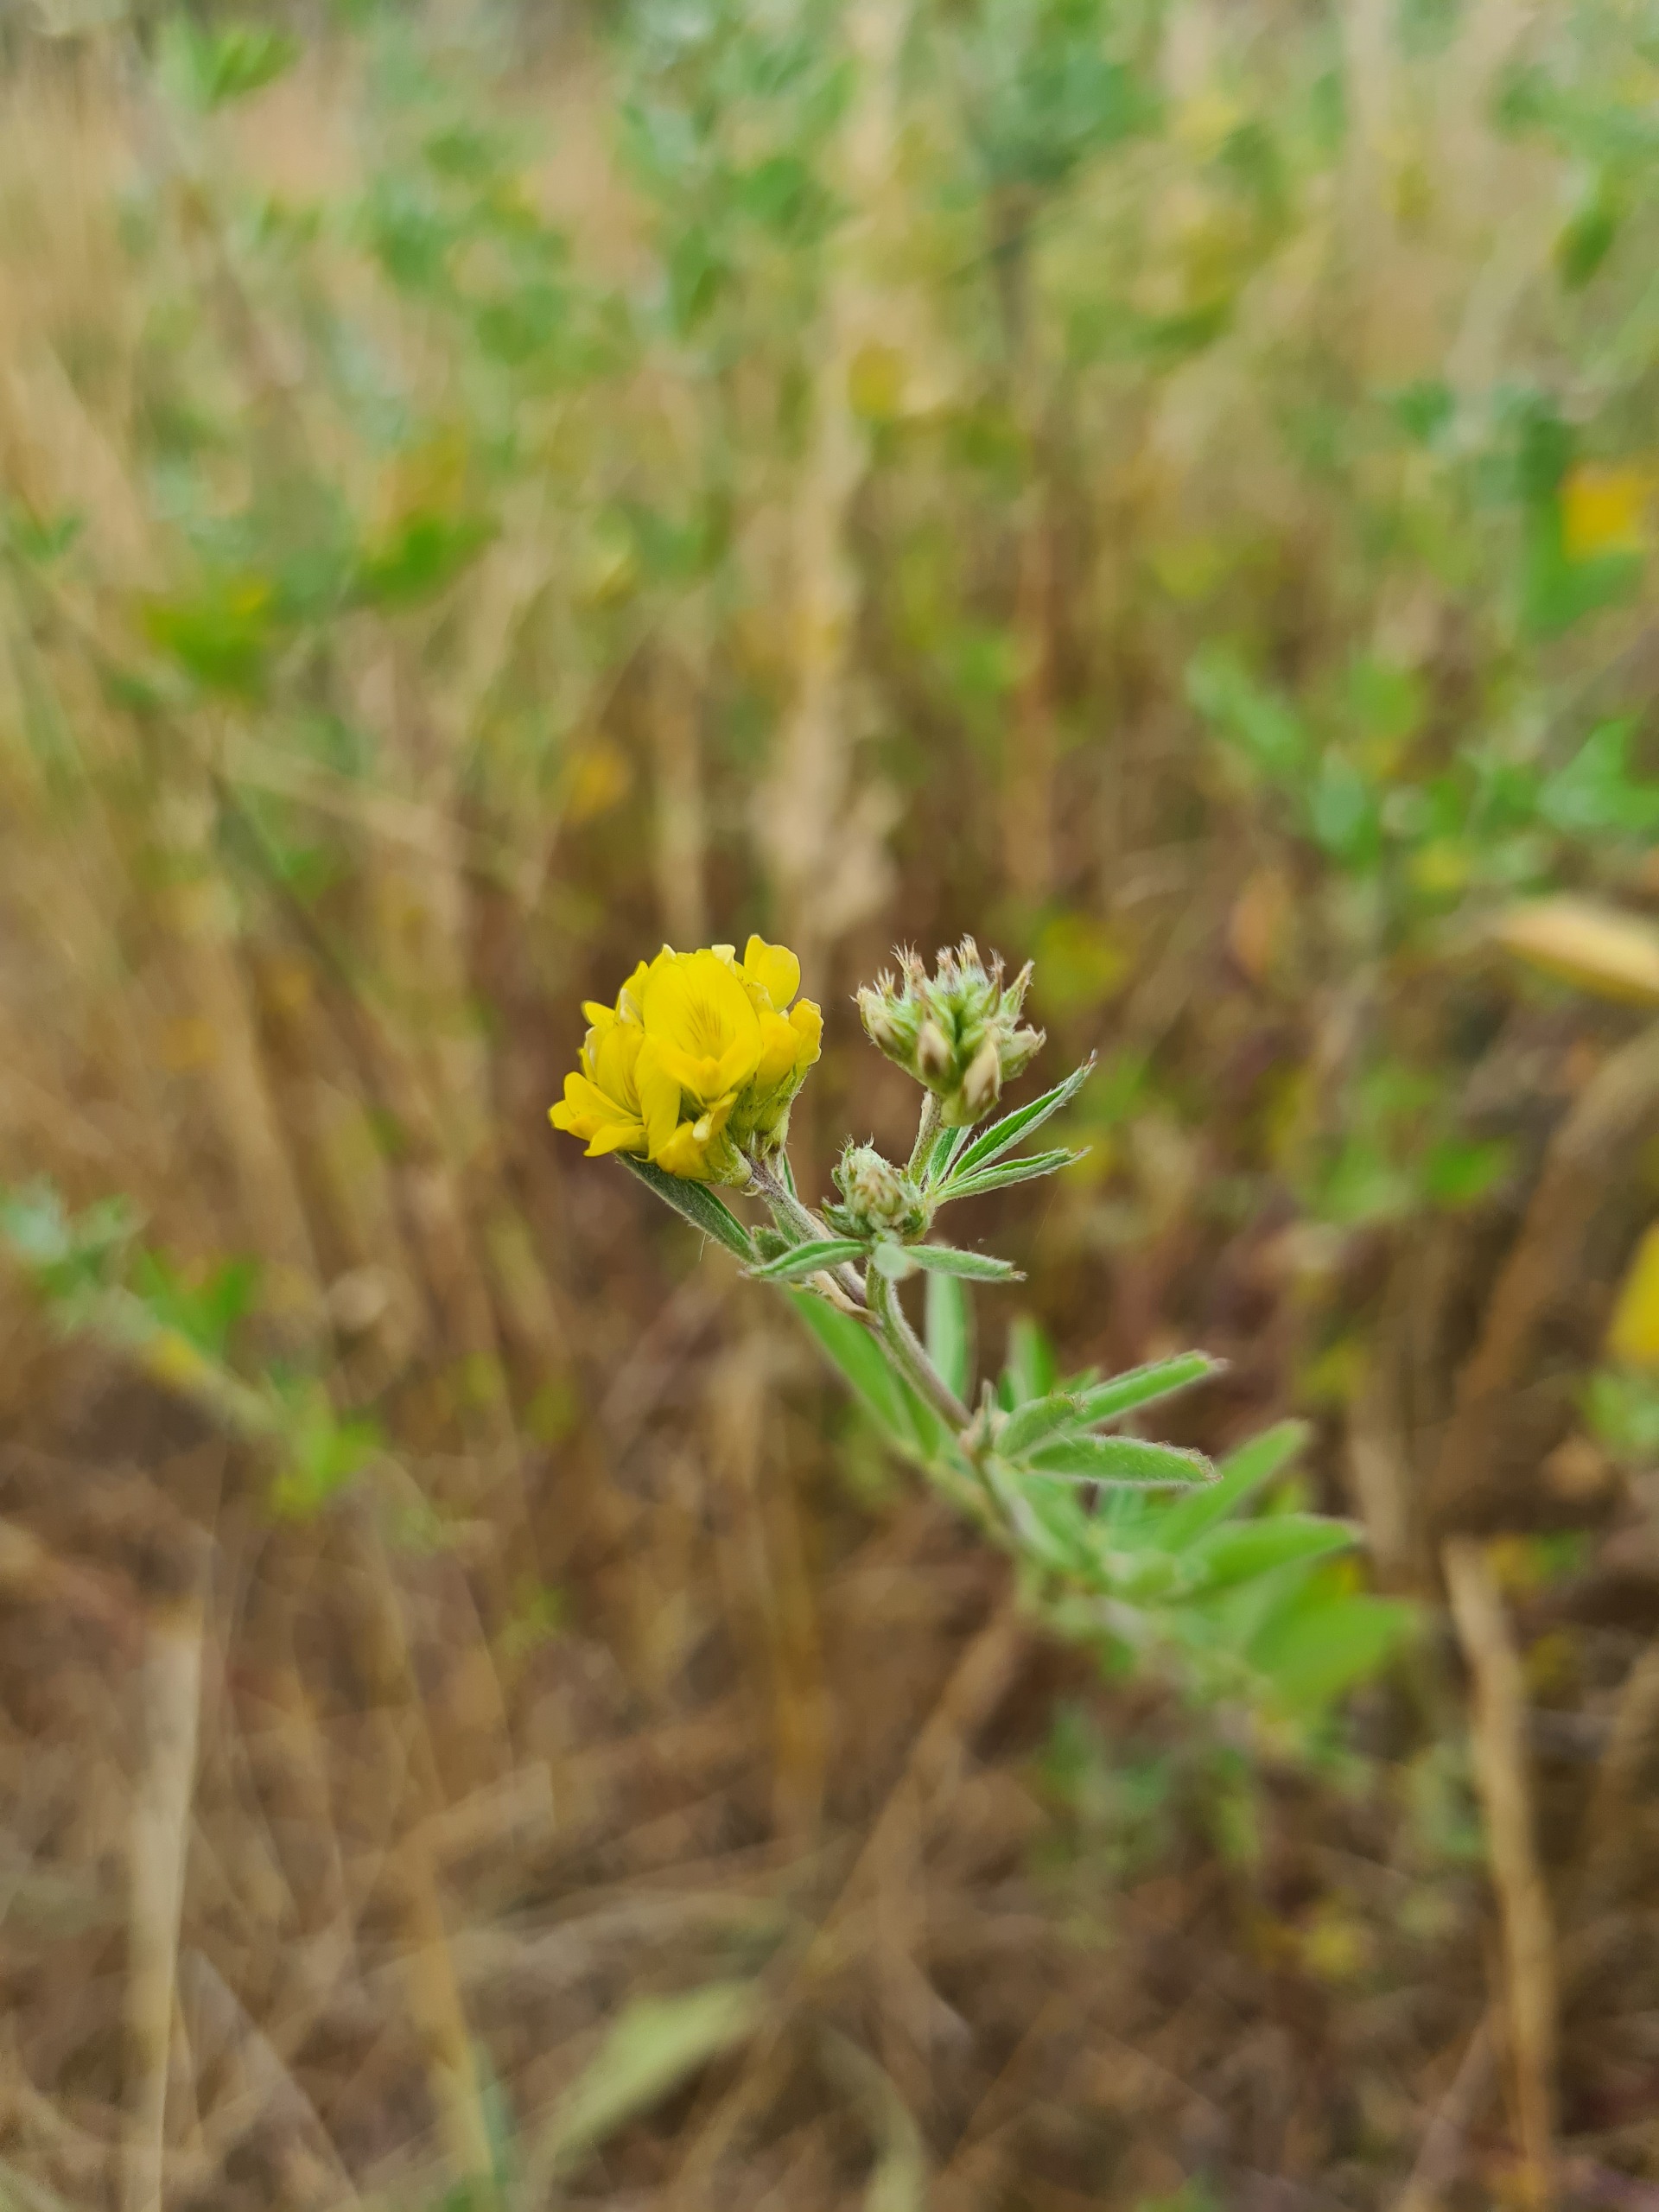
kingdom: Plantae
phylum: Tracheophyta
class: Magnoliopsida
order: Fabales
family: Fabaceae
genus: Medicago
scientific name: Medicago falcata
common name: Segl-sneglebælg
